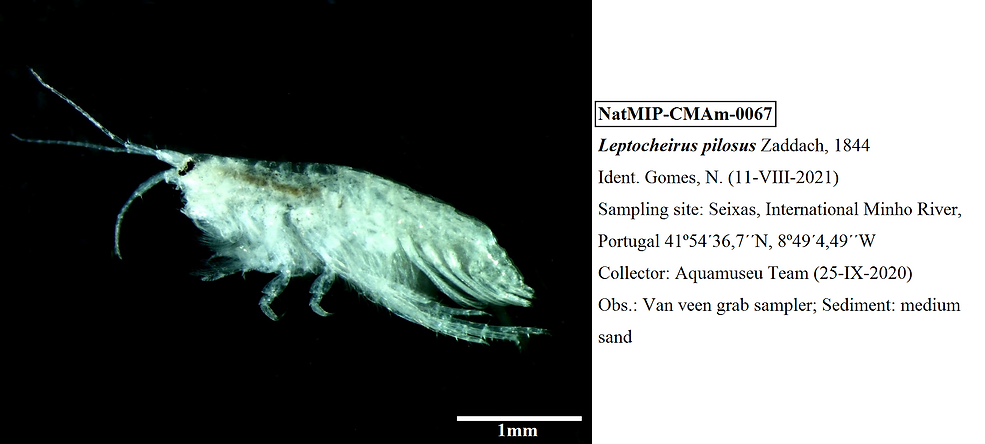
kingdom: Animalia
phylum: Arthropoda
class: Malacostraca
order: Amphipoda
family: Corophiidae
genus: Leptocheirus
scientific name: Leptocheirus pilosus
